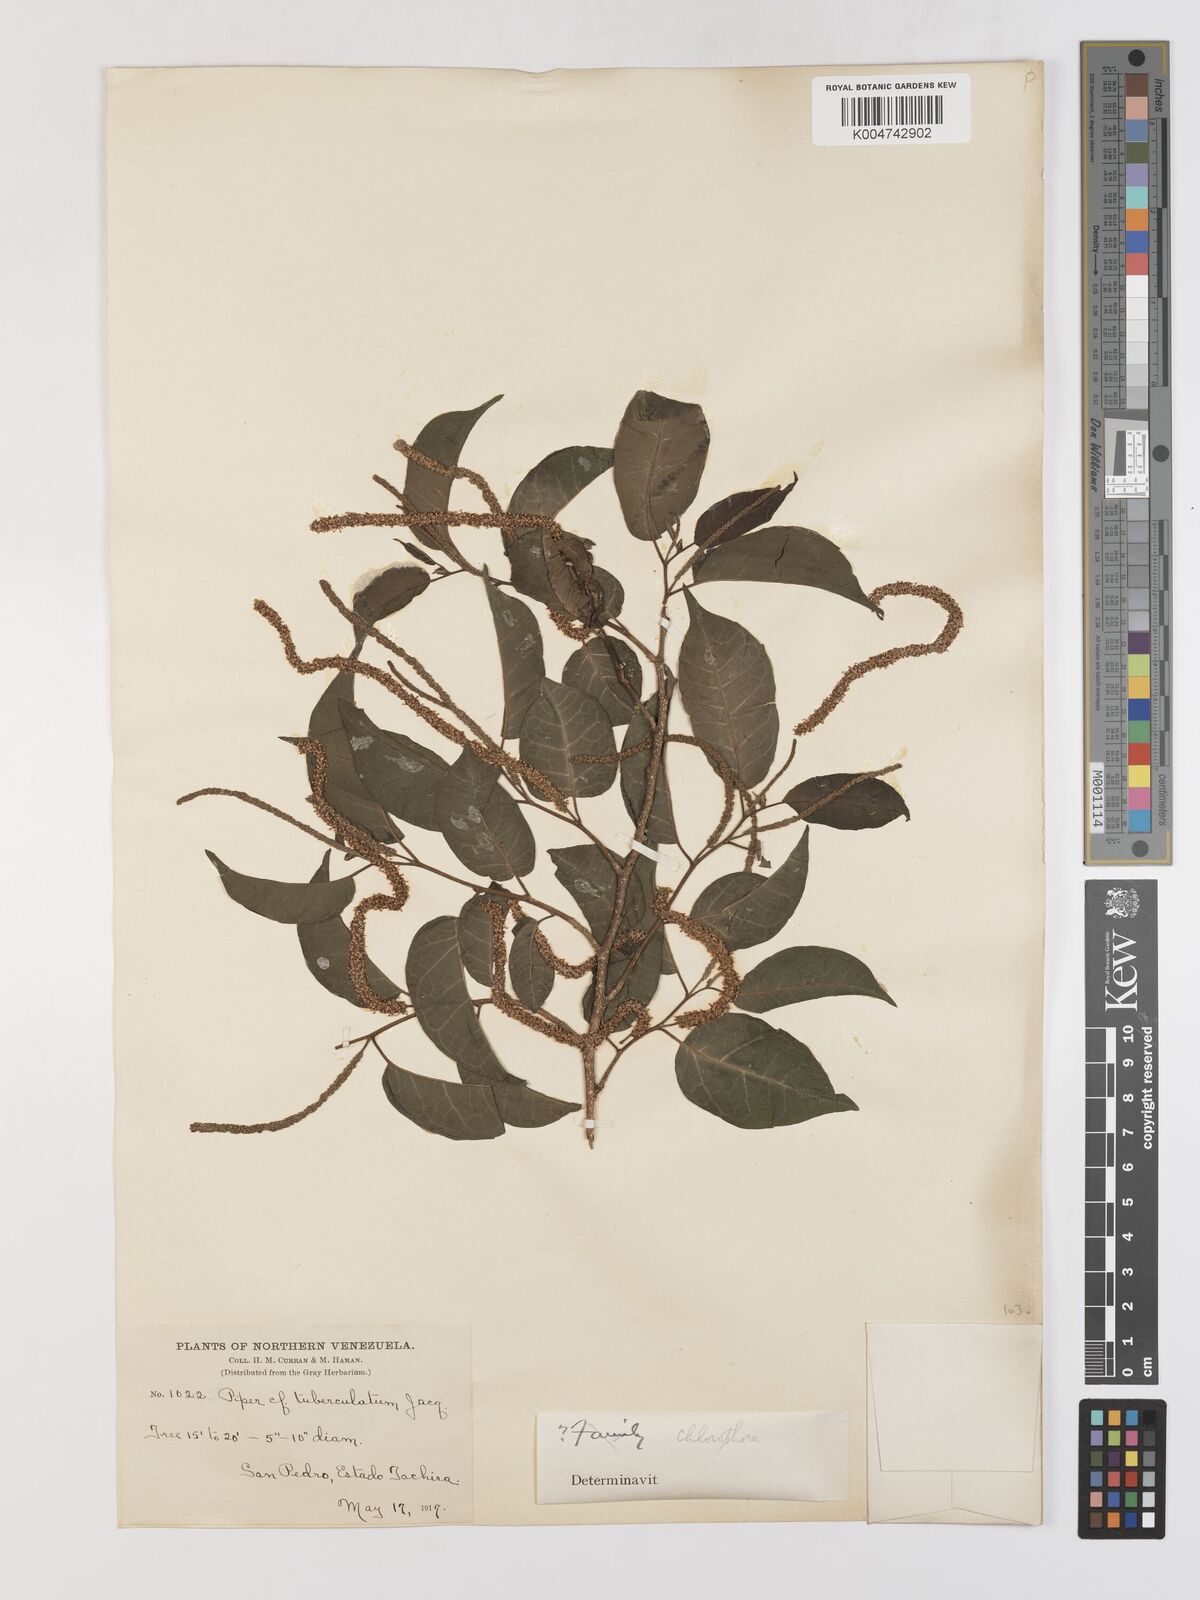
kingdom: Plantae
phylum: Tracheophyta
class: Magnoliopsida
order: Rosales
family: Moraceae
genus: Maclura
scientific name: Maclura tinctoria
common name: Old fustic
